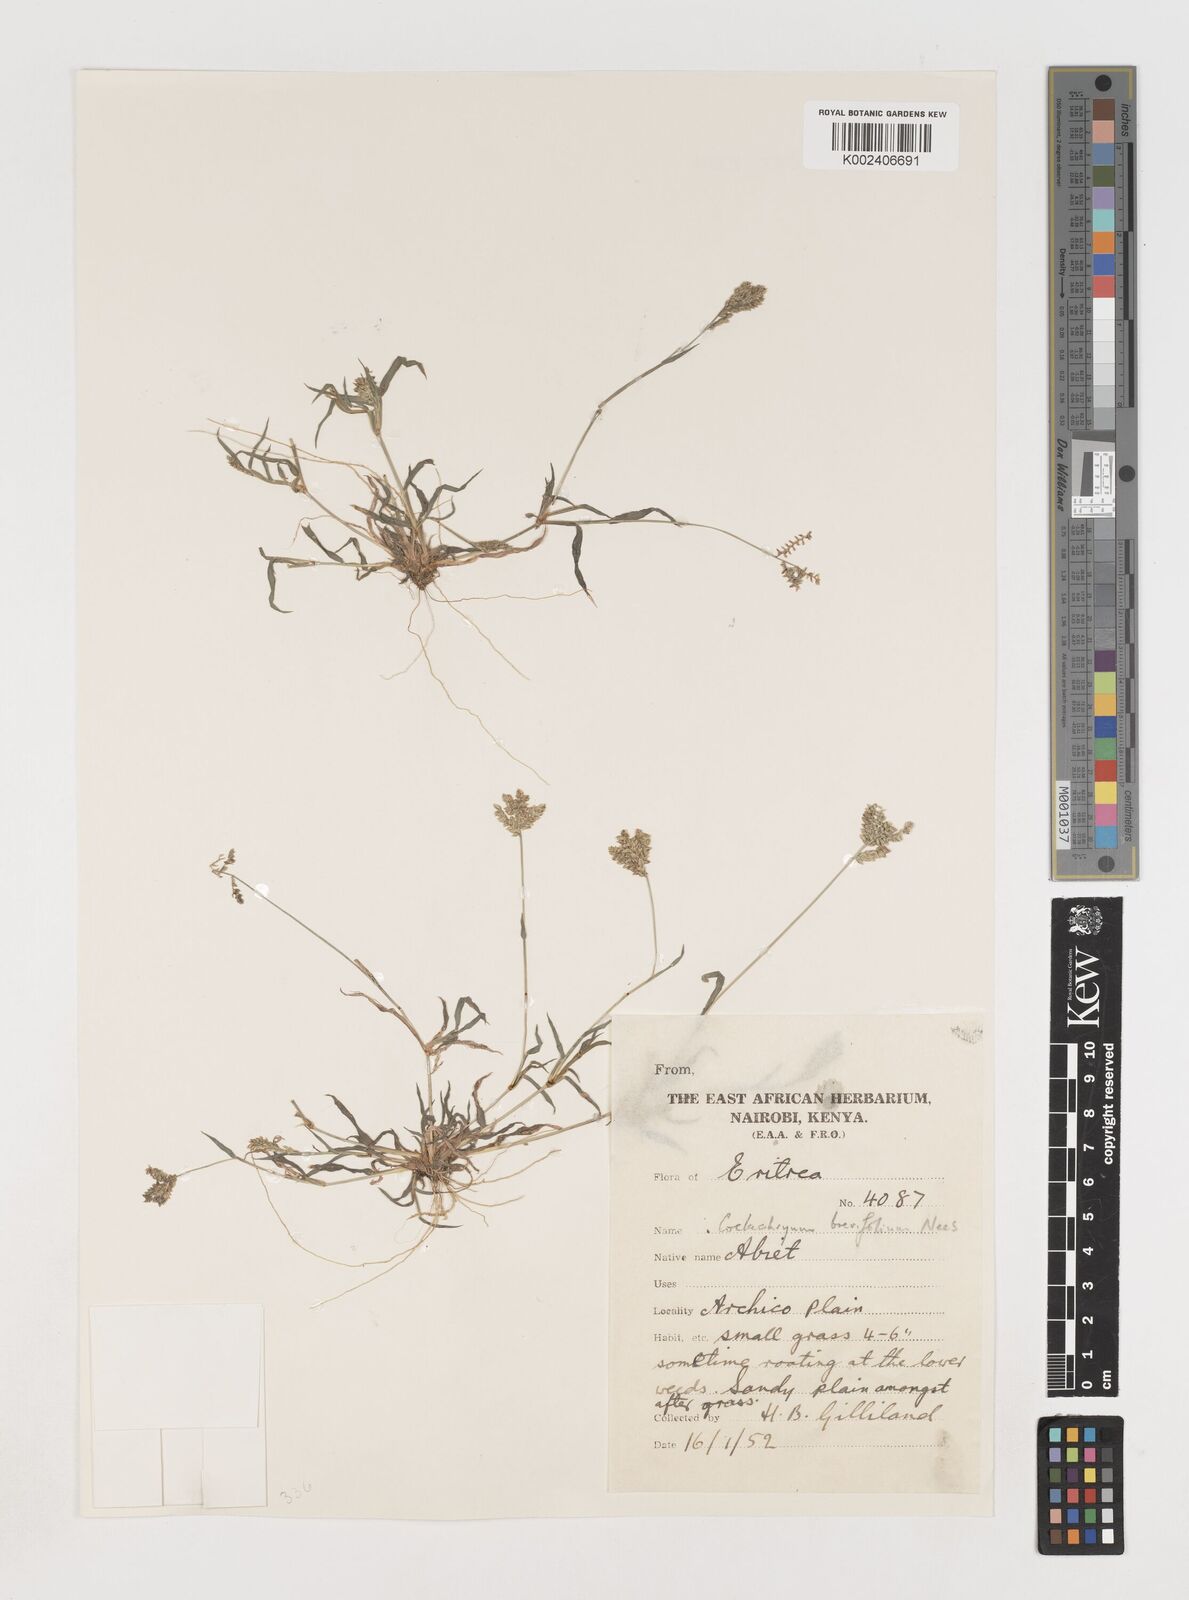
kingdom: Plantae
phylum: Tracheophyta
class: Liliopsida
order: Poales
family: Poaceae
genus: Coelachyrum
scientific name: Coelachyrum brevifolium
